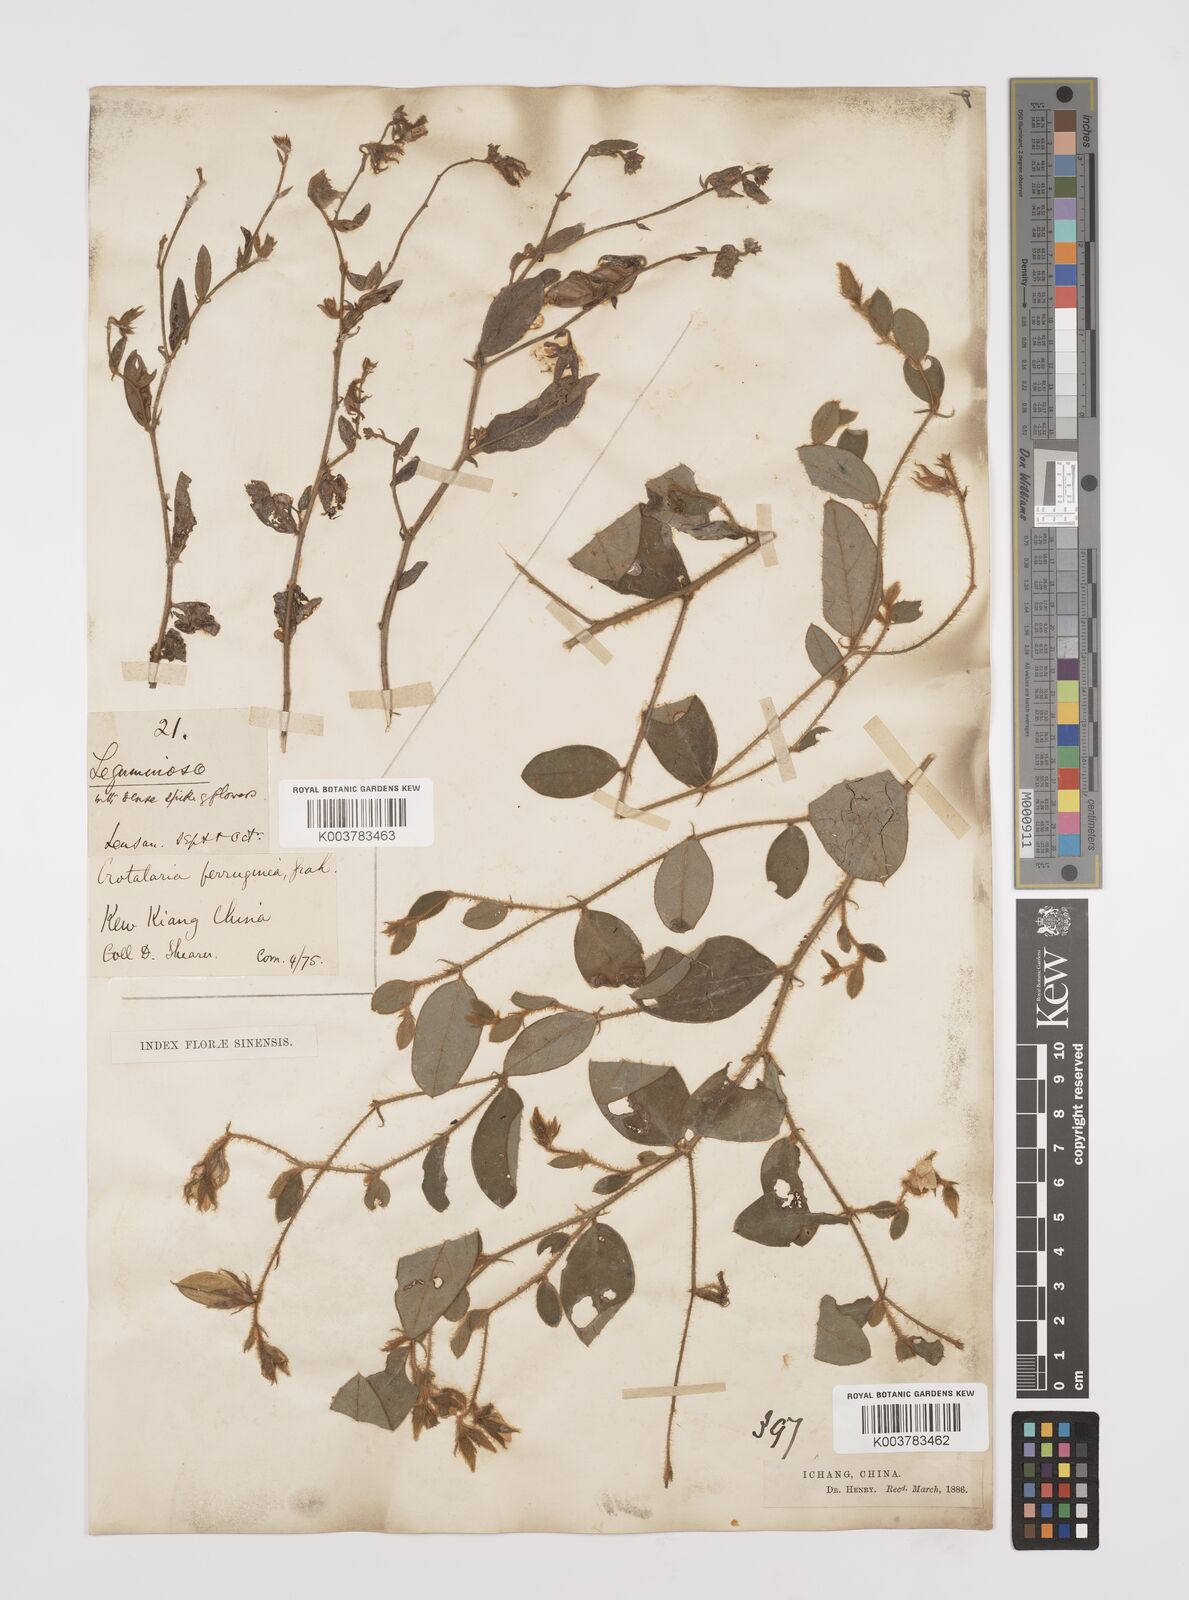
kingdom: Plantae
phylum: Tracheophyta
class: Magnoliopsida
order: Fabales
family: Fabaceae
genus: Crotalaria
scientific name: Crotalaria lejoloba
